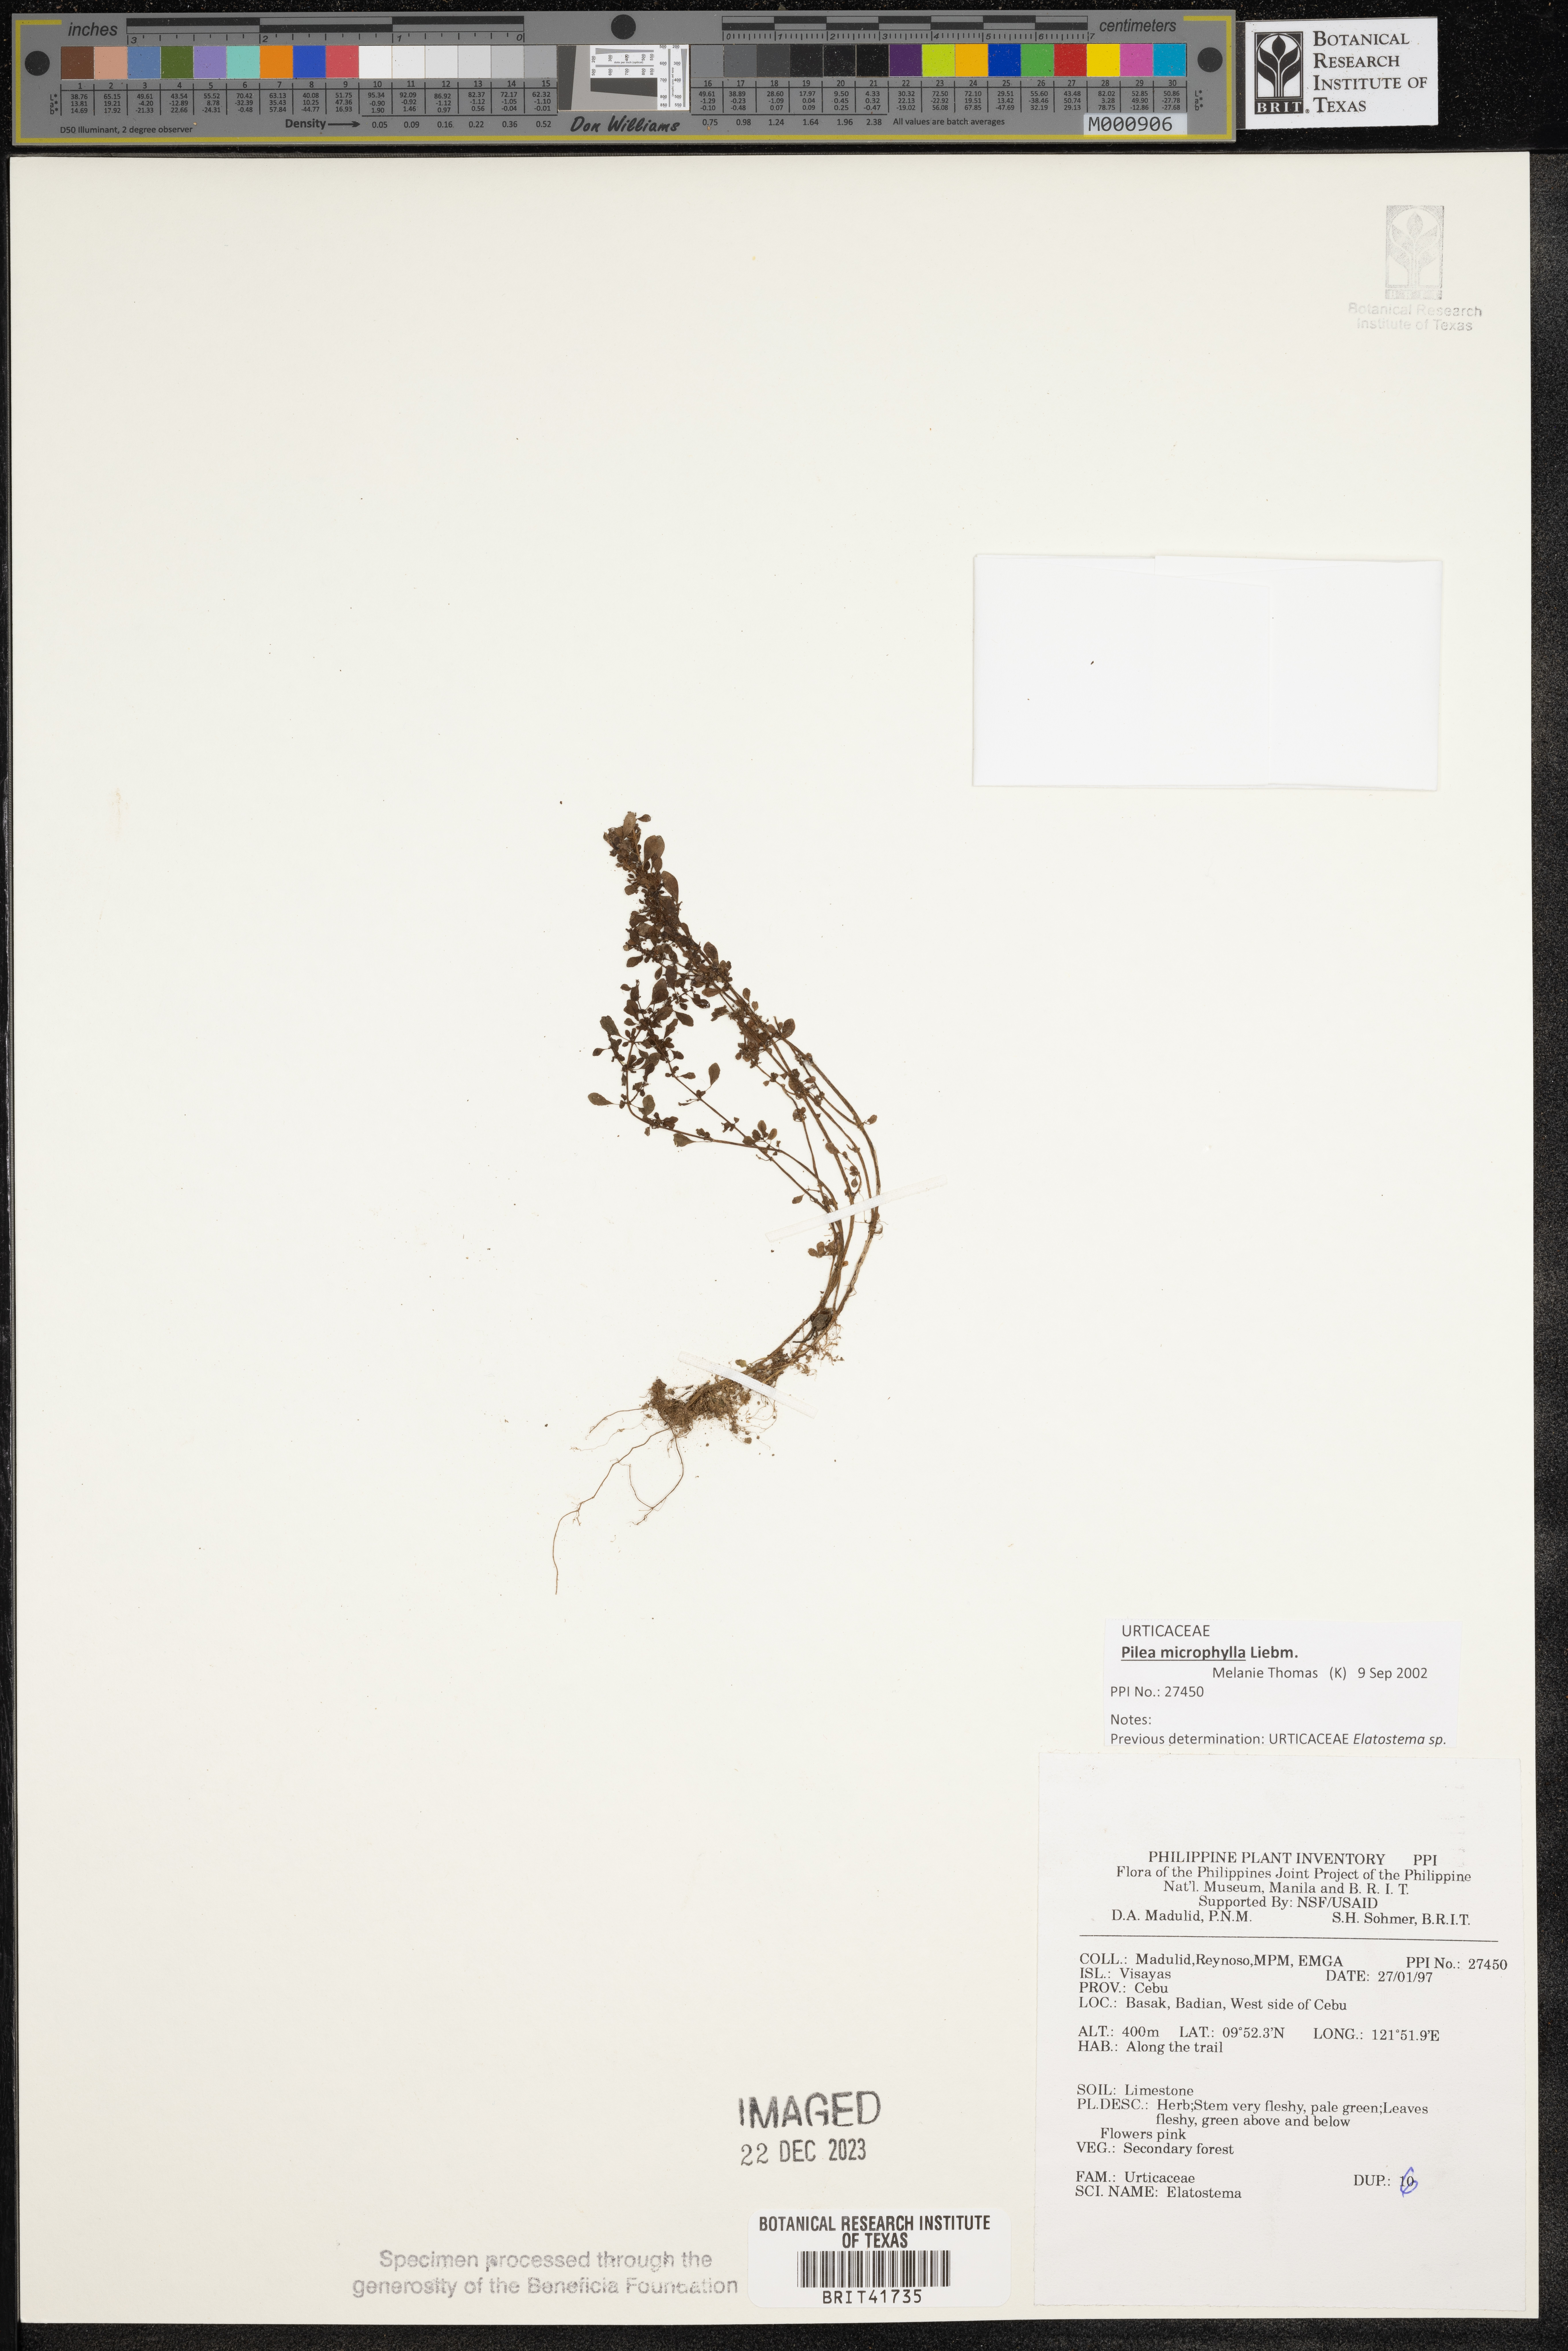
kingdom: Plantae
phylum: Tracheophyta
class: Magnoliopsida
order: Rosales
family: Urticaceae
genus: Elatostema
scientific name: Elatostema
